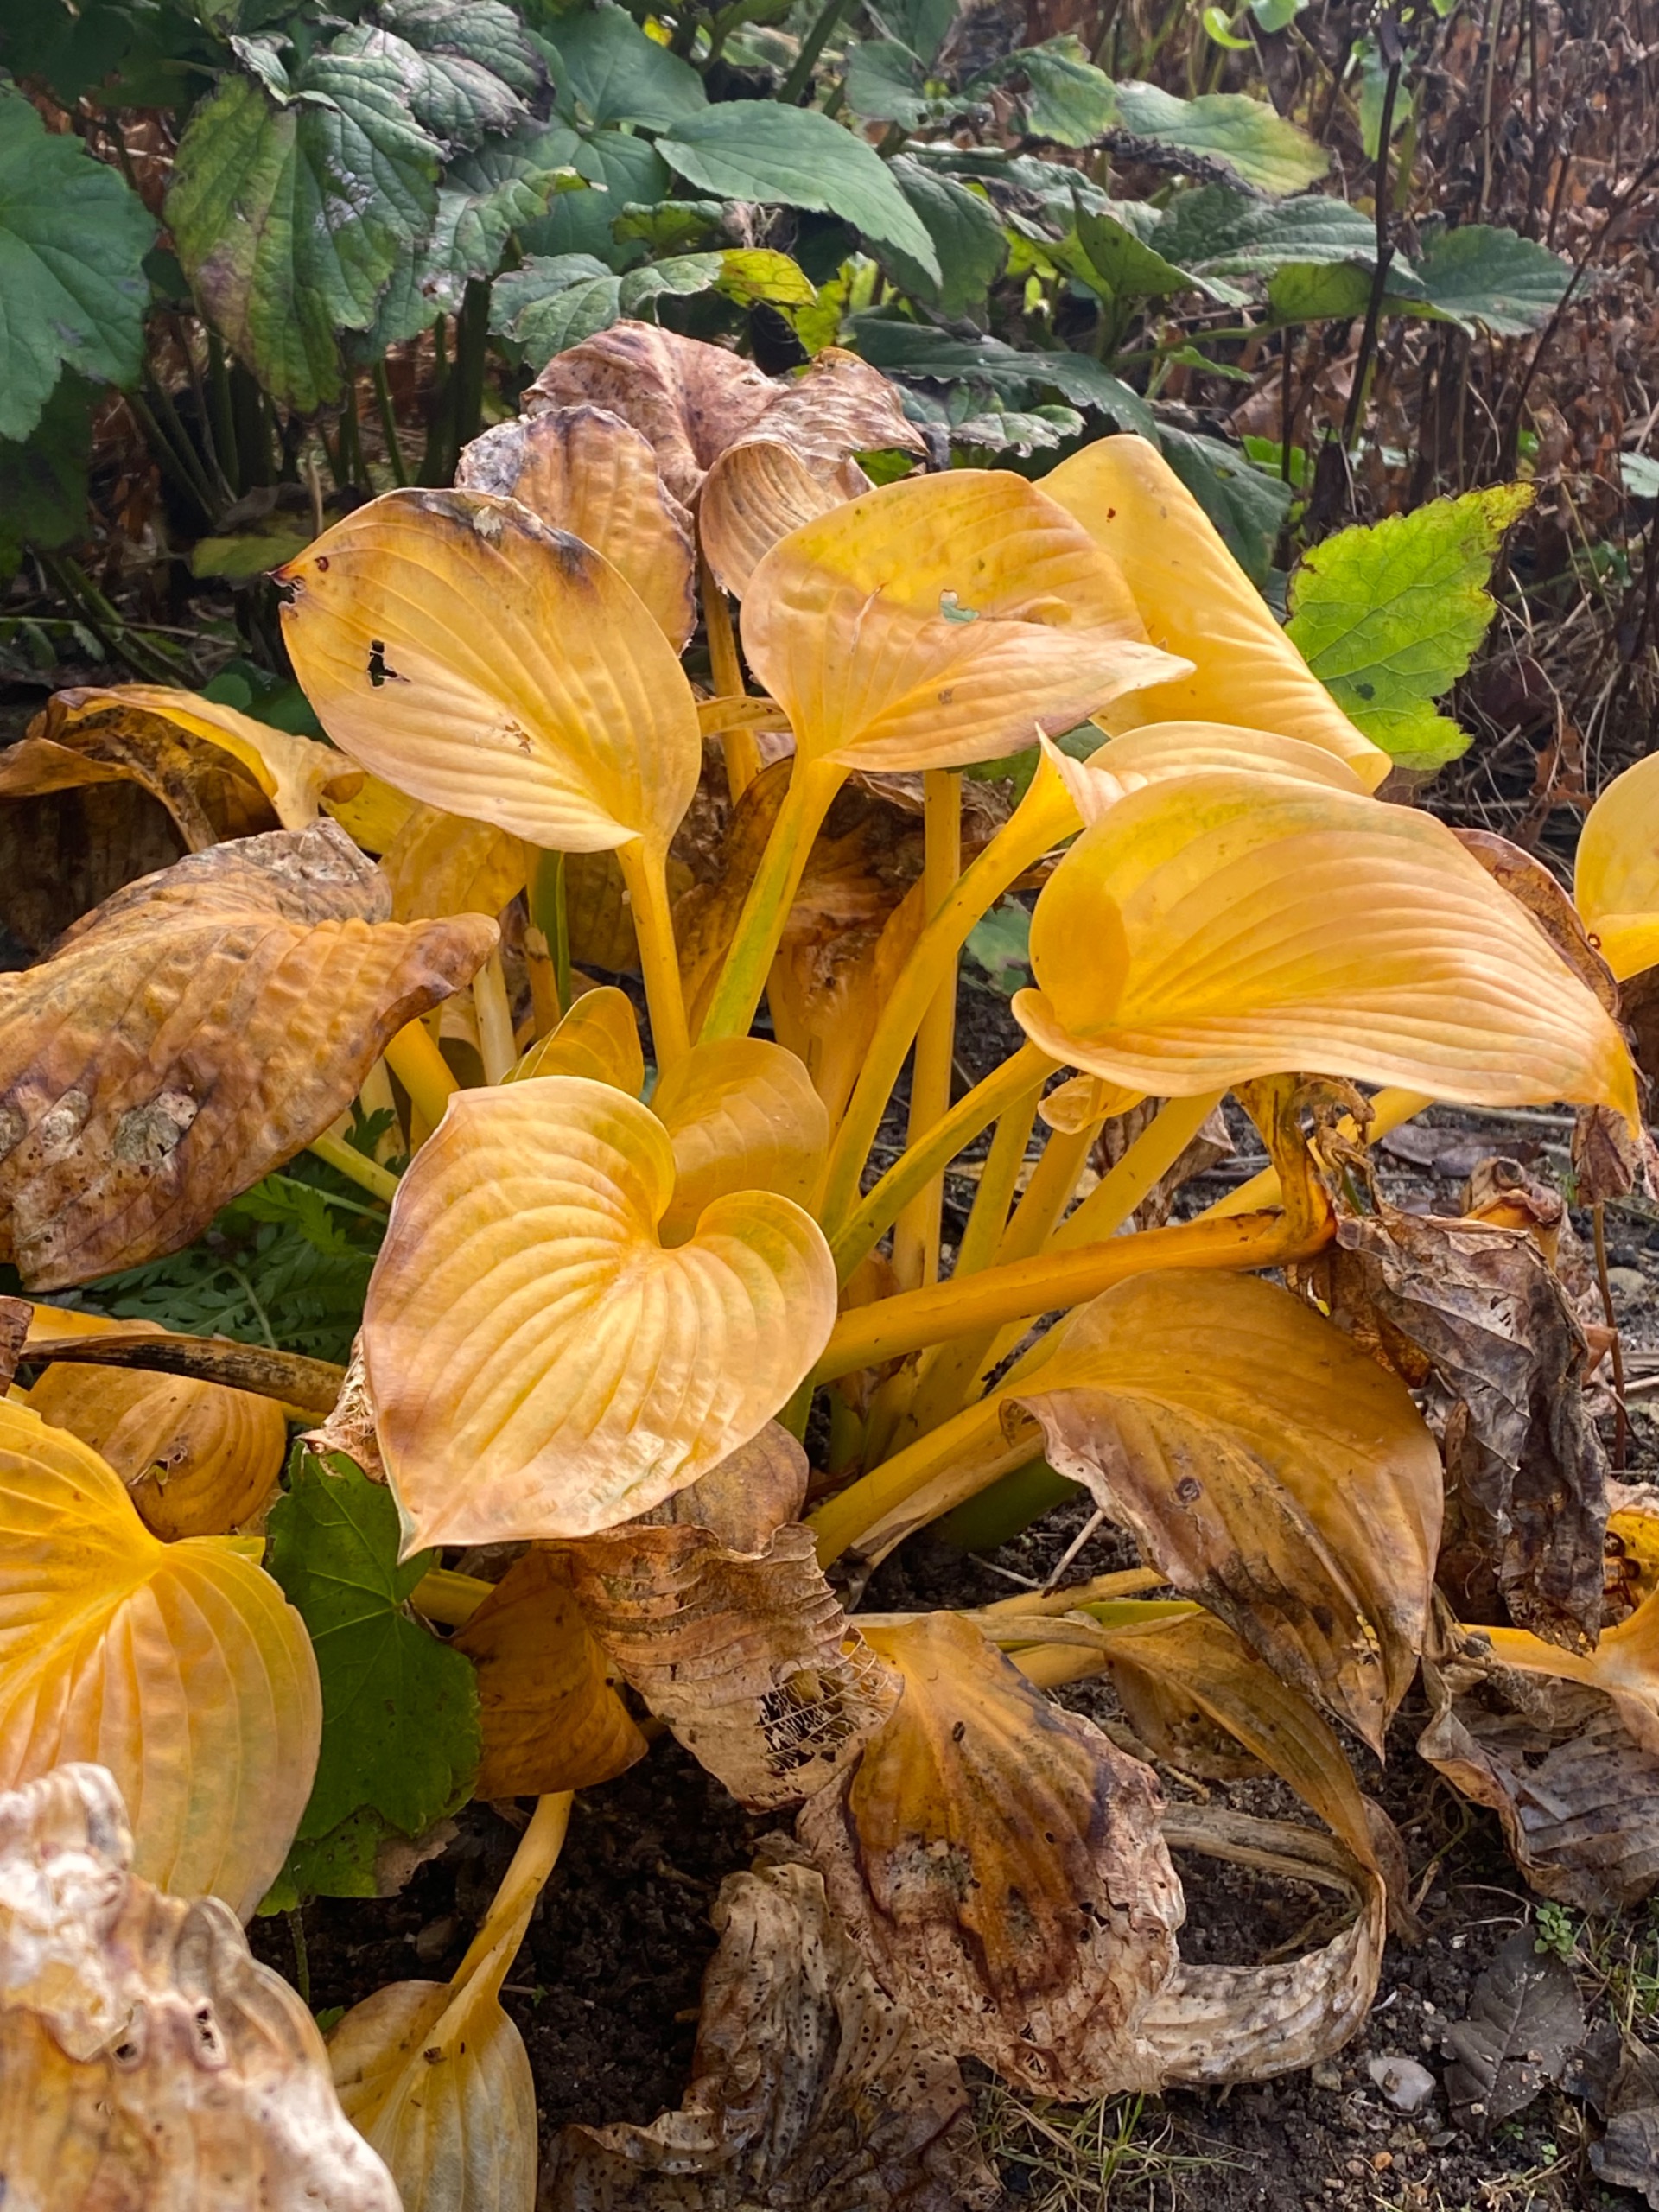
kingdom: Plantae
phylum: Tracheophyta
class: Liliopsida
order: Asparagales
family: Asparagaceae
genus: Hosta
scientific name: Hosta
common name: Hostaslægten
